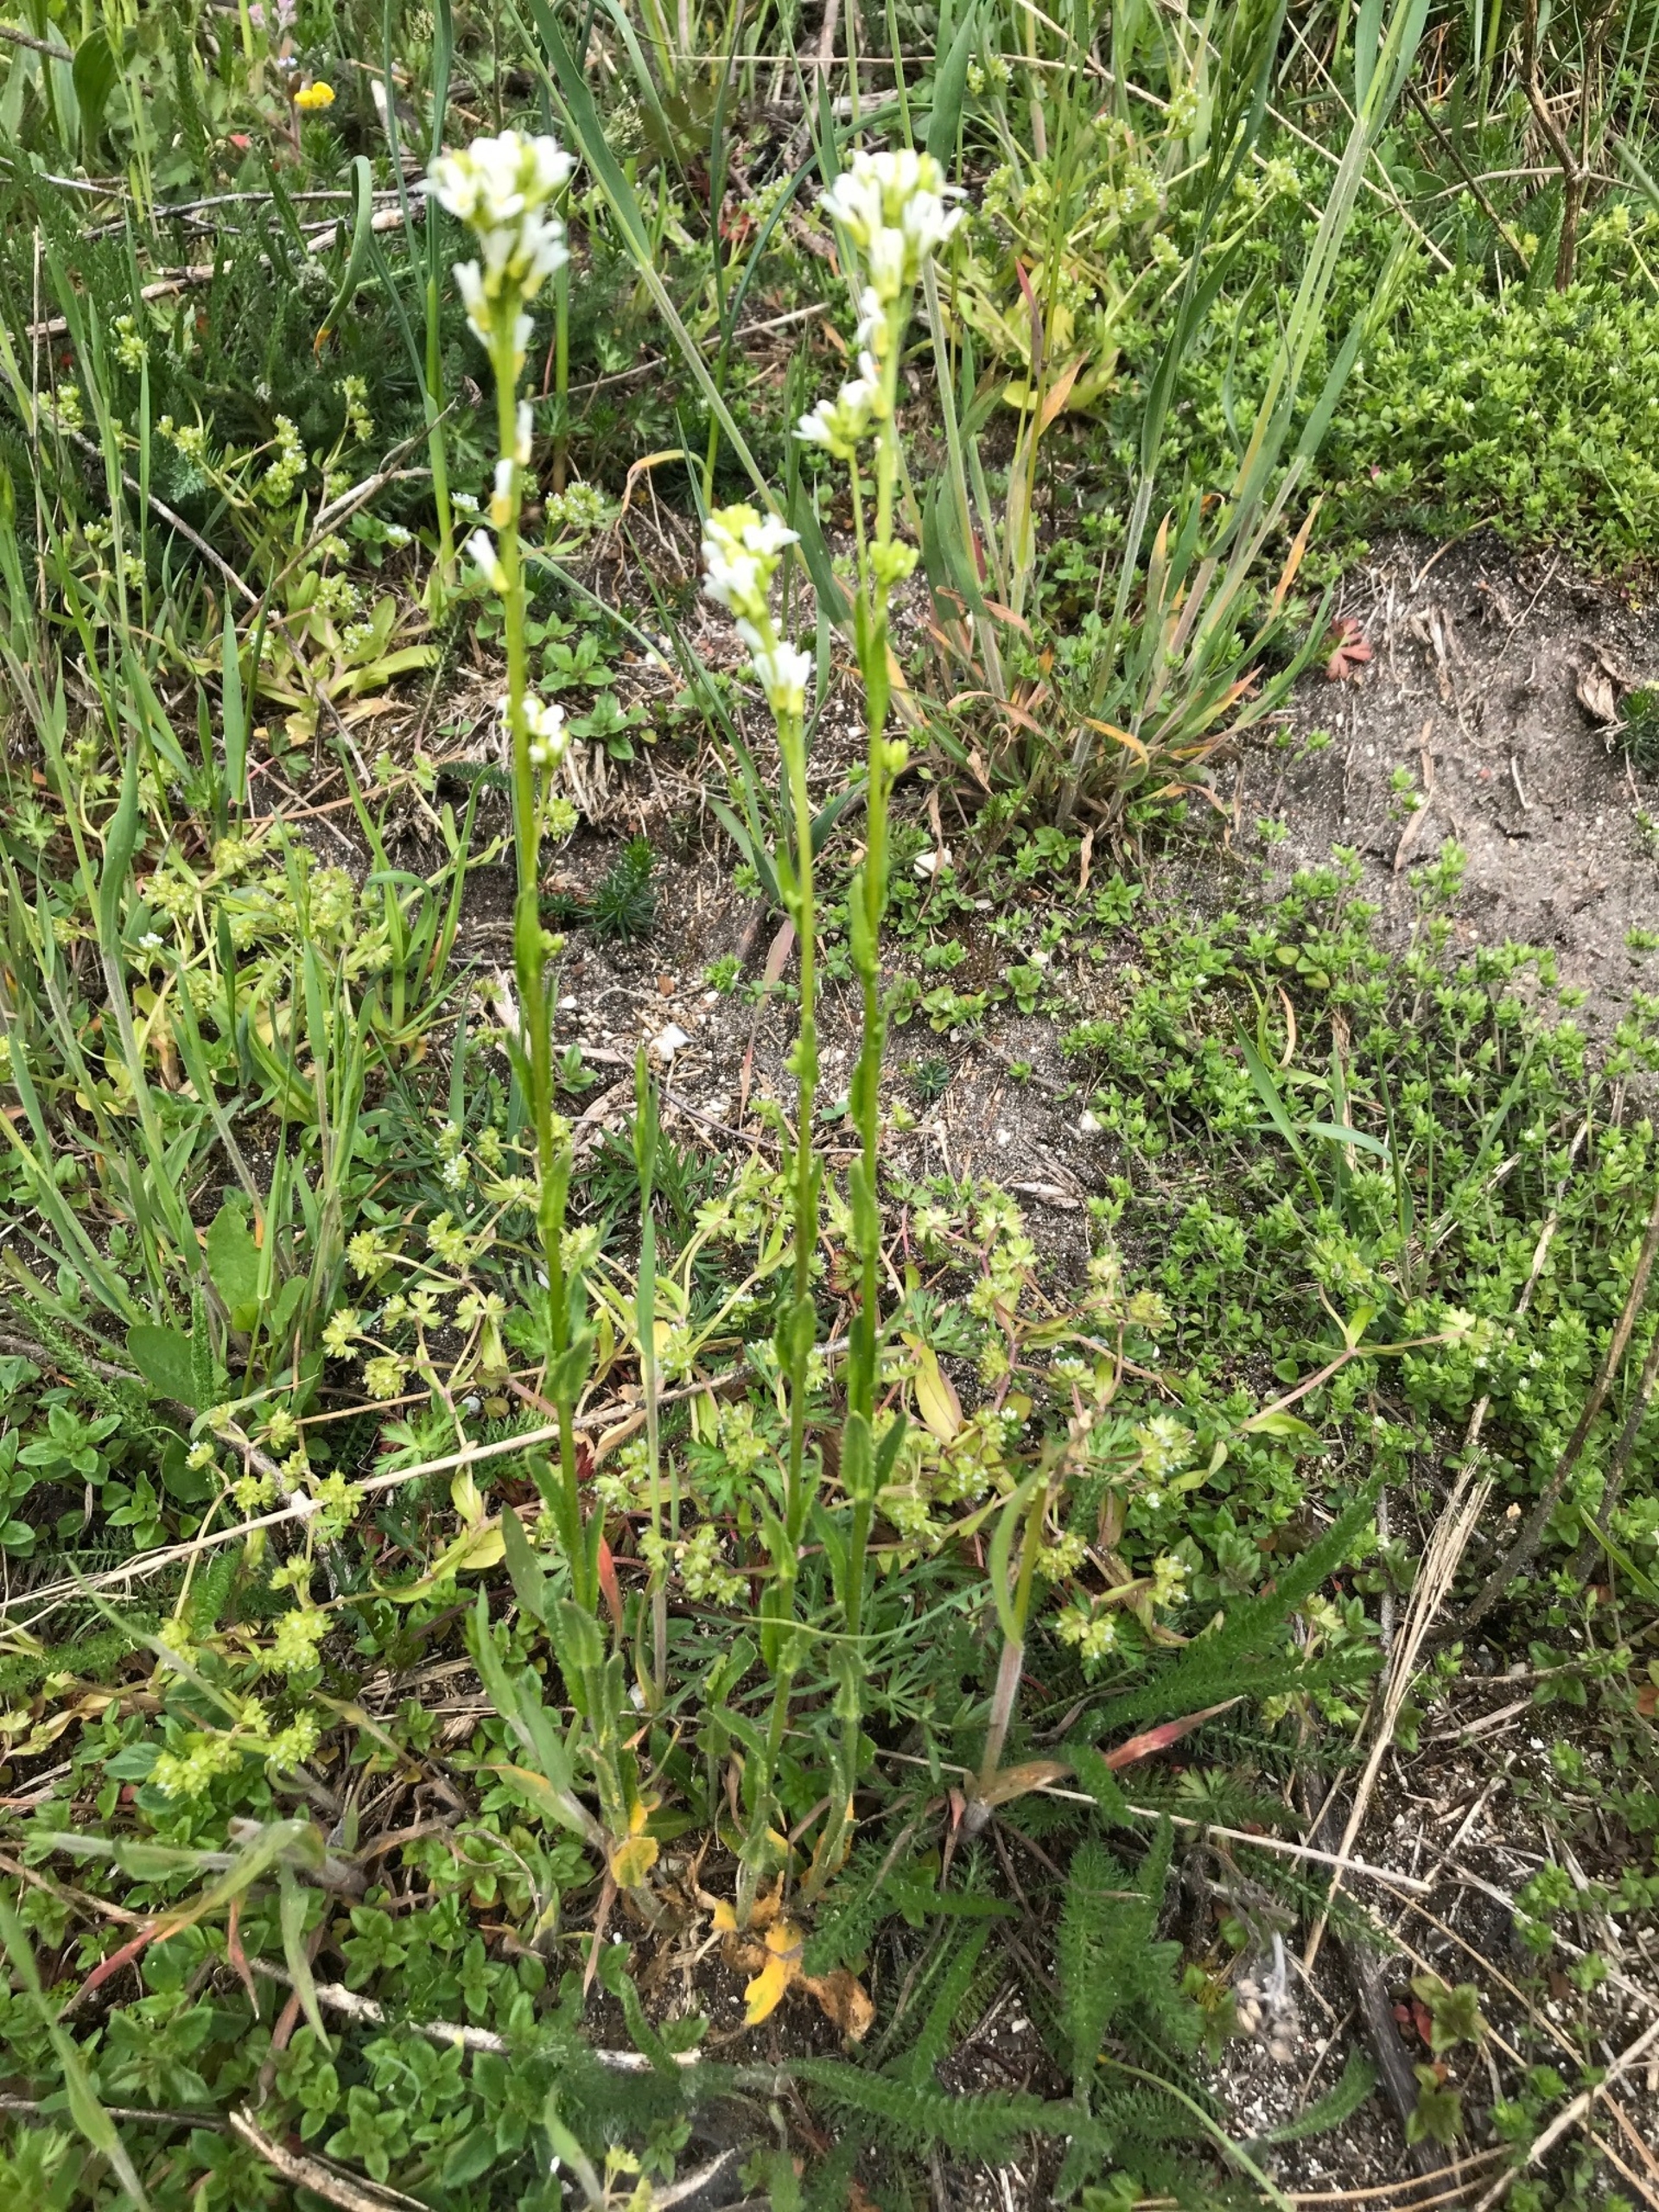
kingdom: Plantae
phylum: Tracheophyta
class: Magnoliopsida
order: Brassicales
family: Brassicaceae
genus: Arabis
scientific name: Arabis hirsuta
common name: Stivhåret kalkkarse
